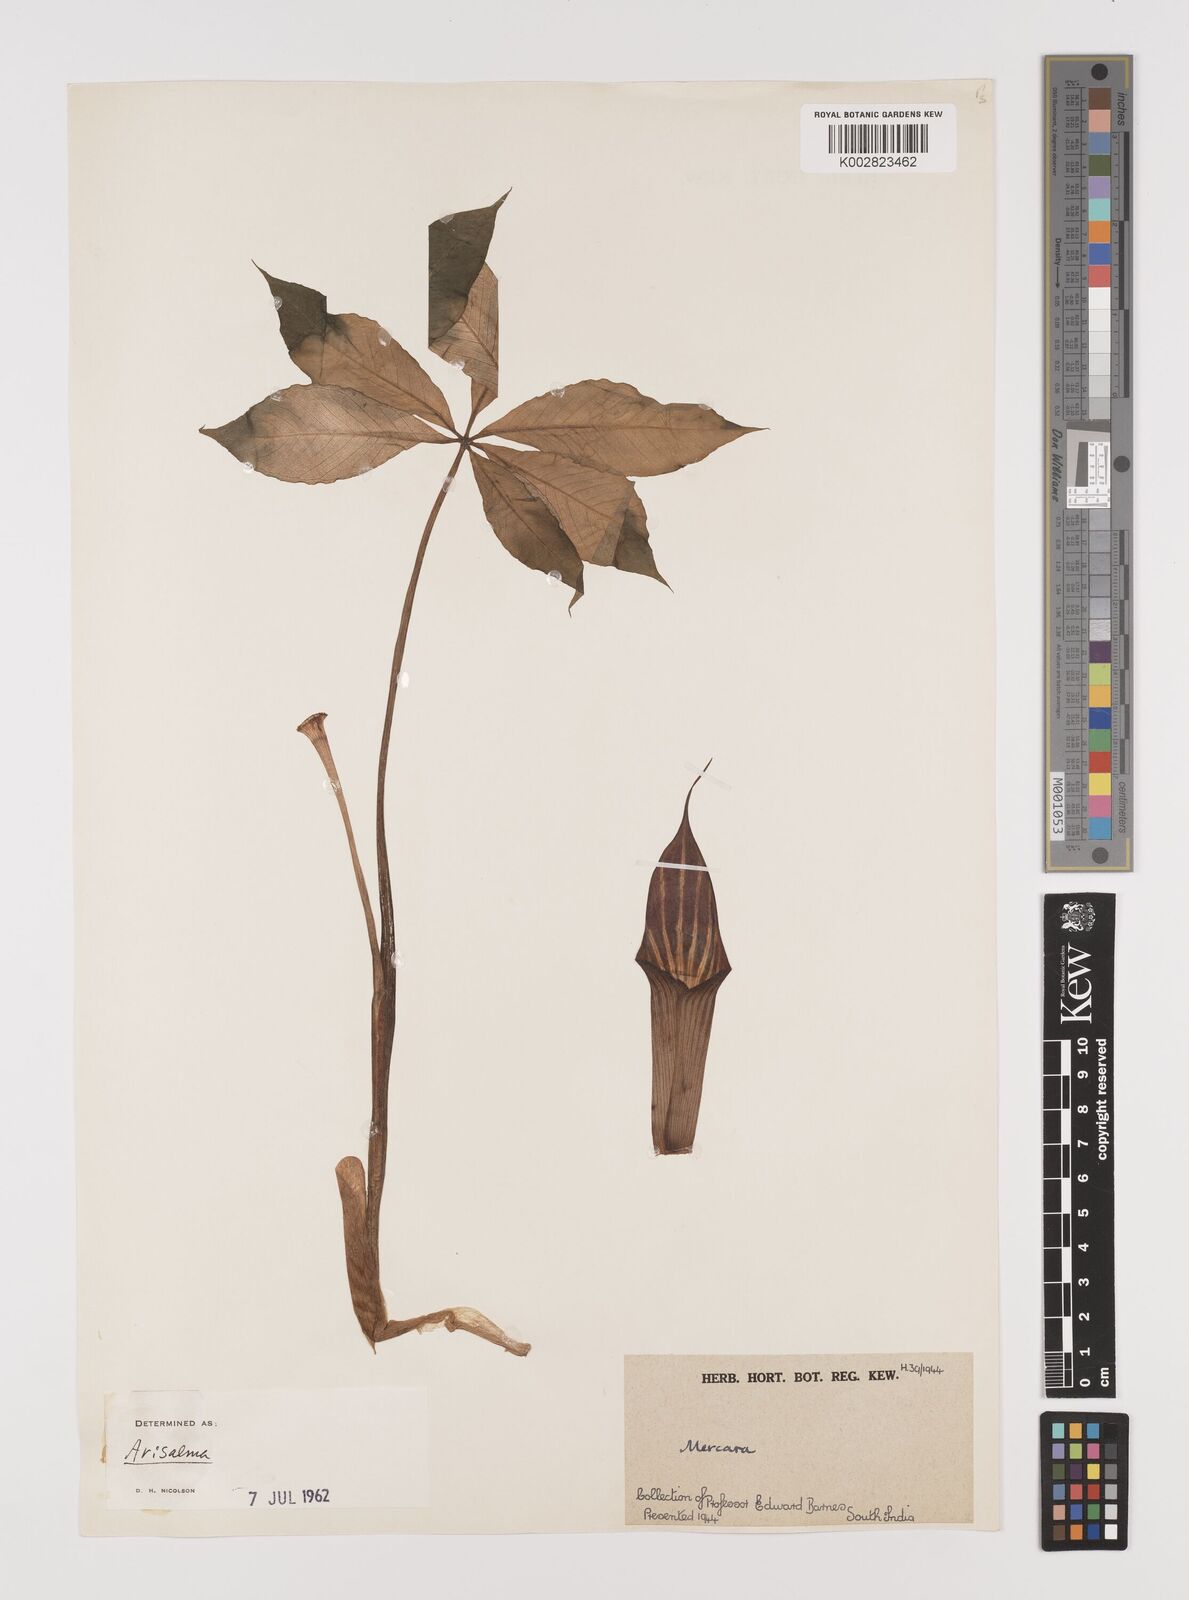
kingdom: Plantae
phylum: Tracheophyta
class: Liliopsida
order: Alismatales
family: Araceae
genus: Arisaema
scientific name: Arisaema
